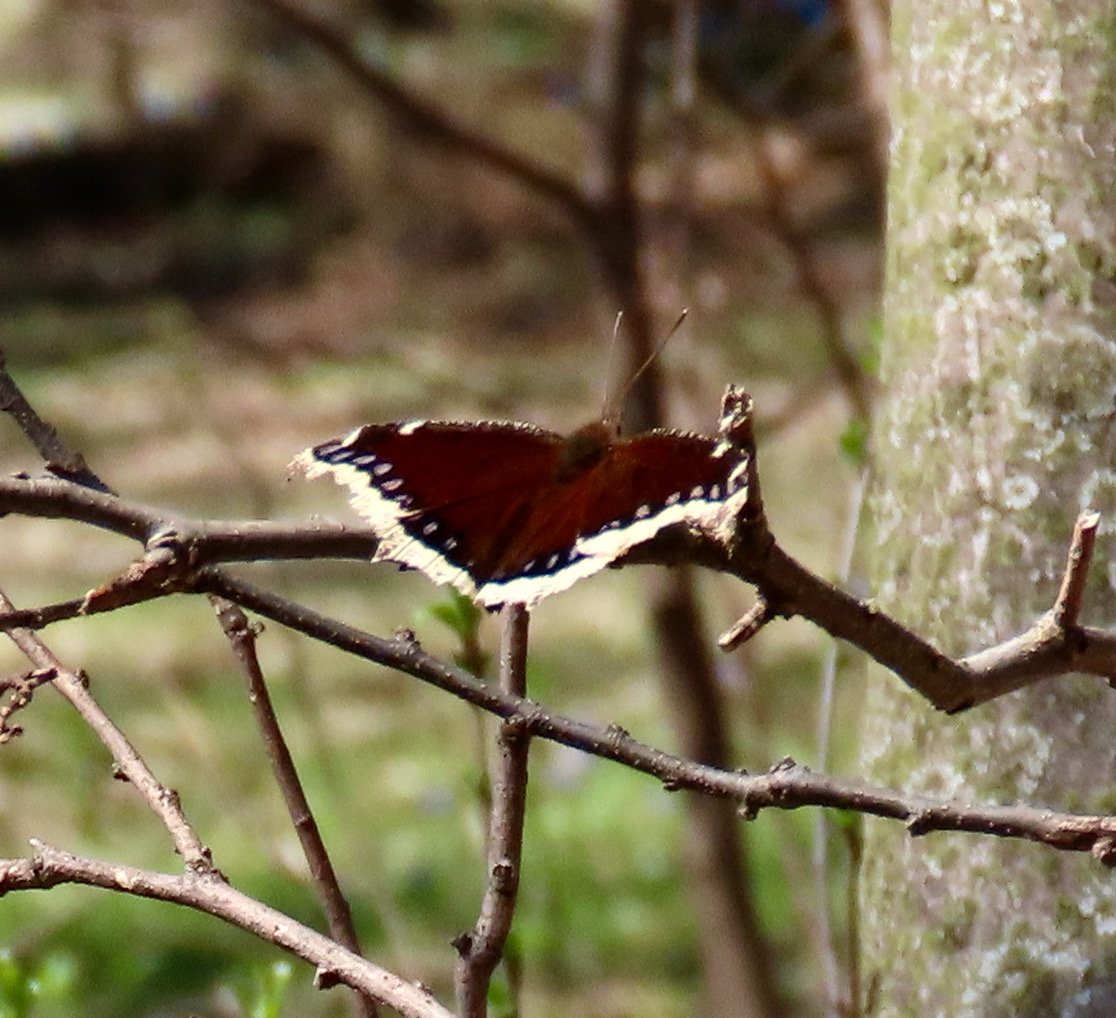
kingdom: Animalia
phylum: Arthropoda
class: Insecta
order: Lepidoptera
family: Nymphalidae
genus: Nymphalis
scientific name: Nymphalis antiopa
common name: Mourning Cloak
